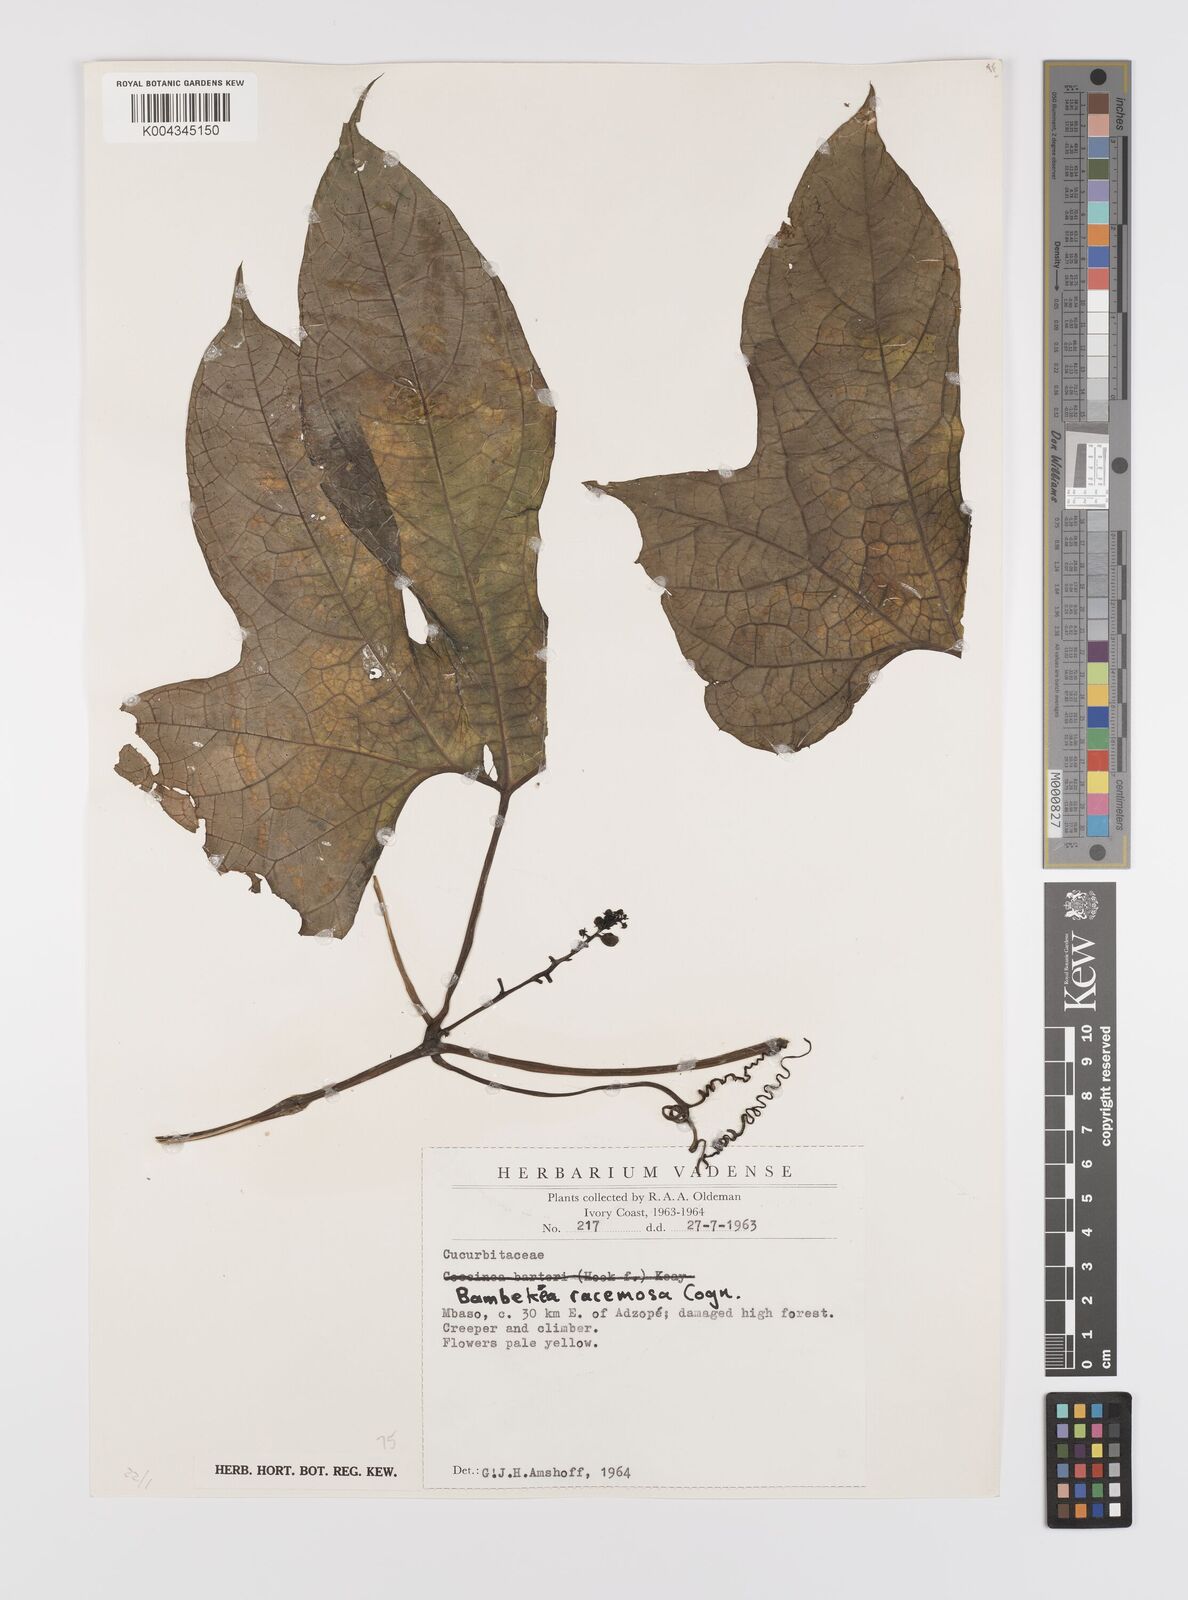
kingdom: Plantae
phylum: Tracheophyta
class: Magnoliopsida
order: Cucurbitales
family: Cucurbitaceae
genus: Bambekea
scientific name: Bambekea racemosa
